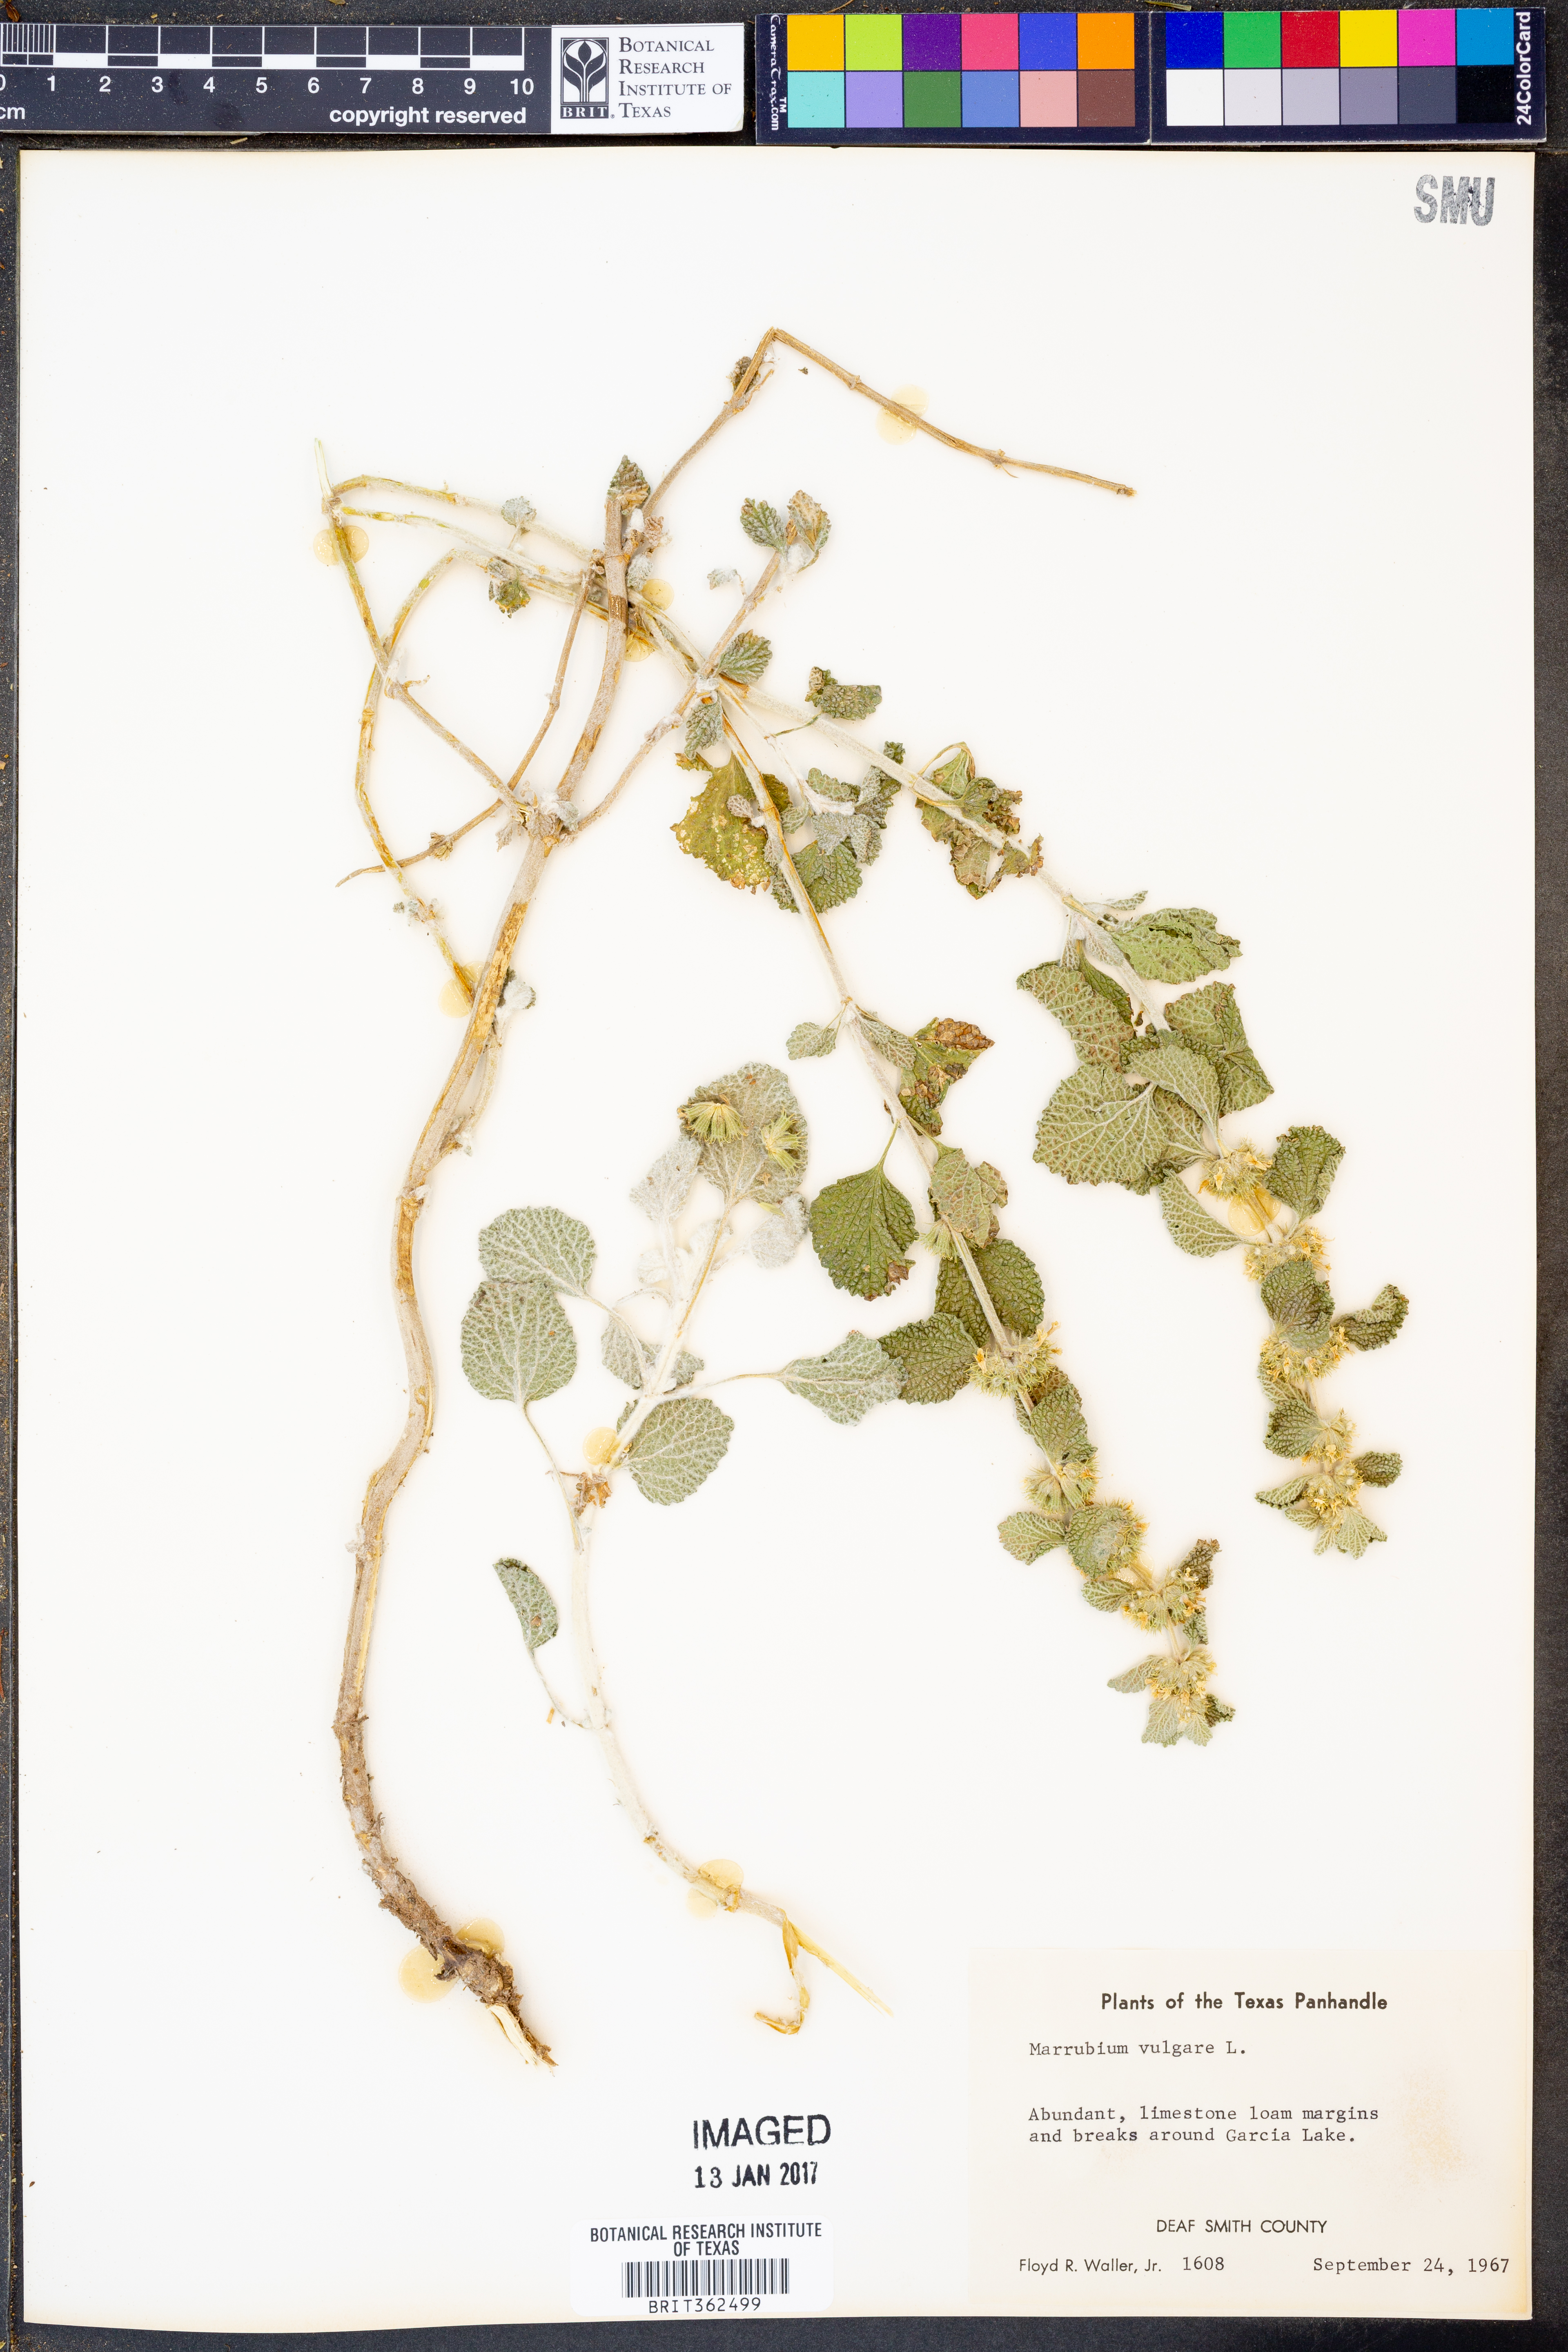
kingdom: Plantae
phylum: Tracheophyta
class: Magnoliopsida
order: Lamiales
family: Lamiaceae
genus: Marrubium
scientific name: Marrubium vulgare
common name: Horehound
